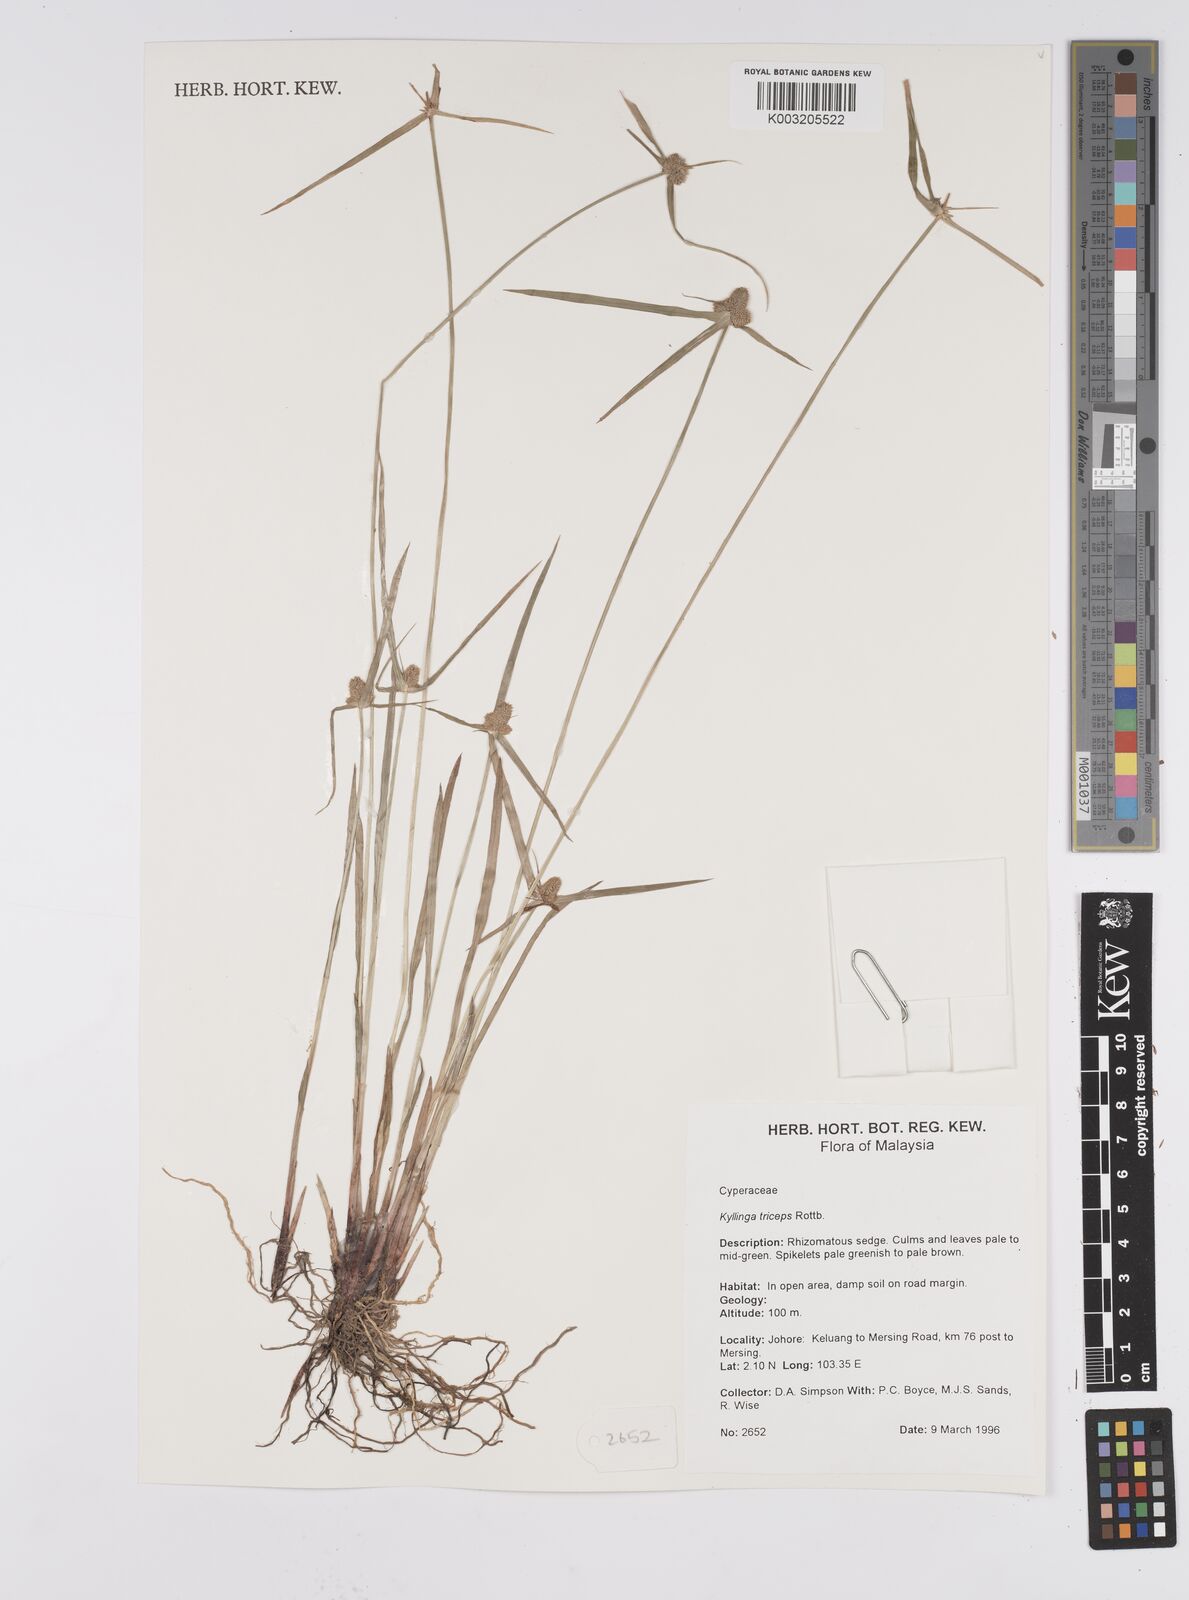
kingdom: Plantae
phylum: Tracheophyta
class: Liliopsida
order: Poales
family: Cyperaceae
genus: Cyperus
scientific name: Cyperus
